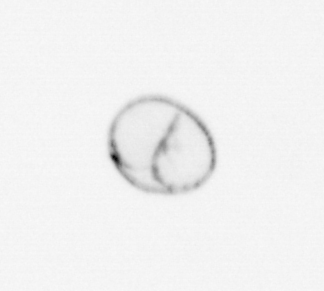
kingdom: Chromista
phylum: Myzozoa
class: Dinophyceae
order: Noctilucales
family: Noctilucaceae
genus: Noctiluca
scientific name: Noctiluca scintillans
